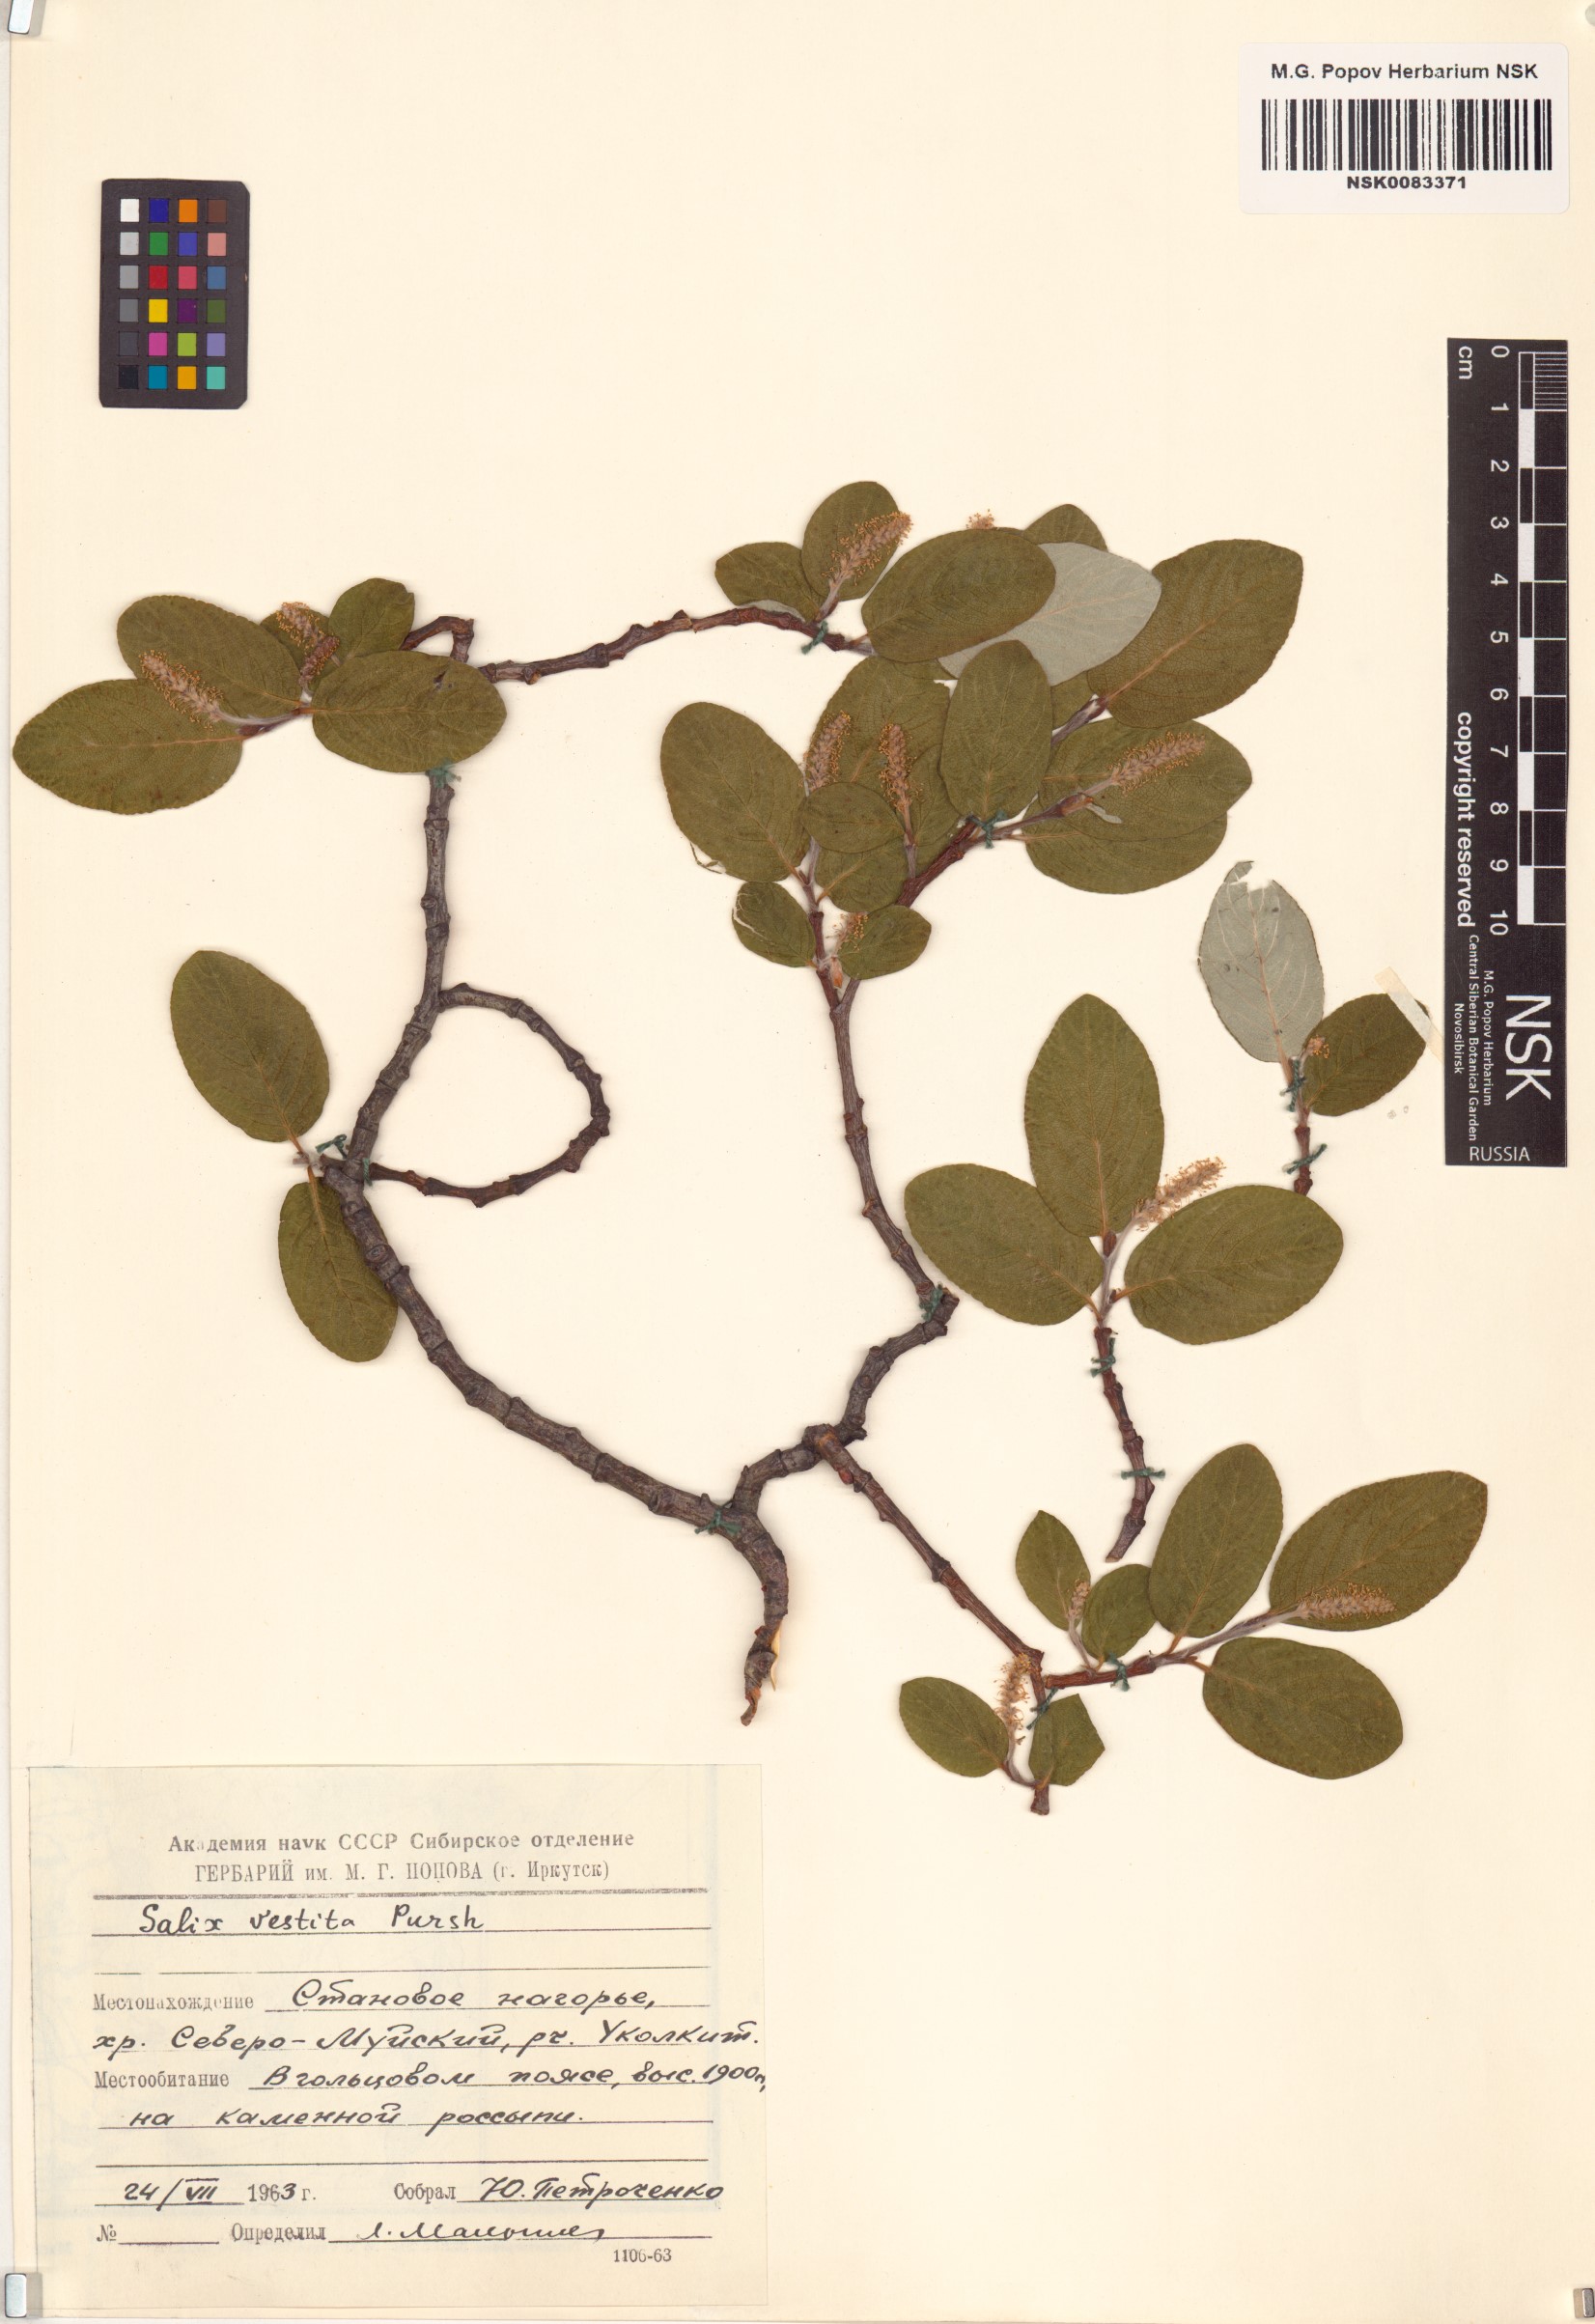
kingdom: Plantae
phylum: Tracheophyta
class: Magnoliopsida
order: Malpighiales
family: Salicaceae
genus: Salix
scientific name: Salix vestita
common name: Hairy willow
